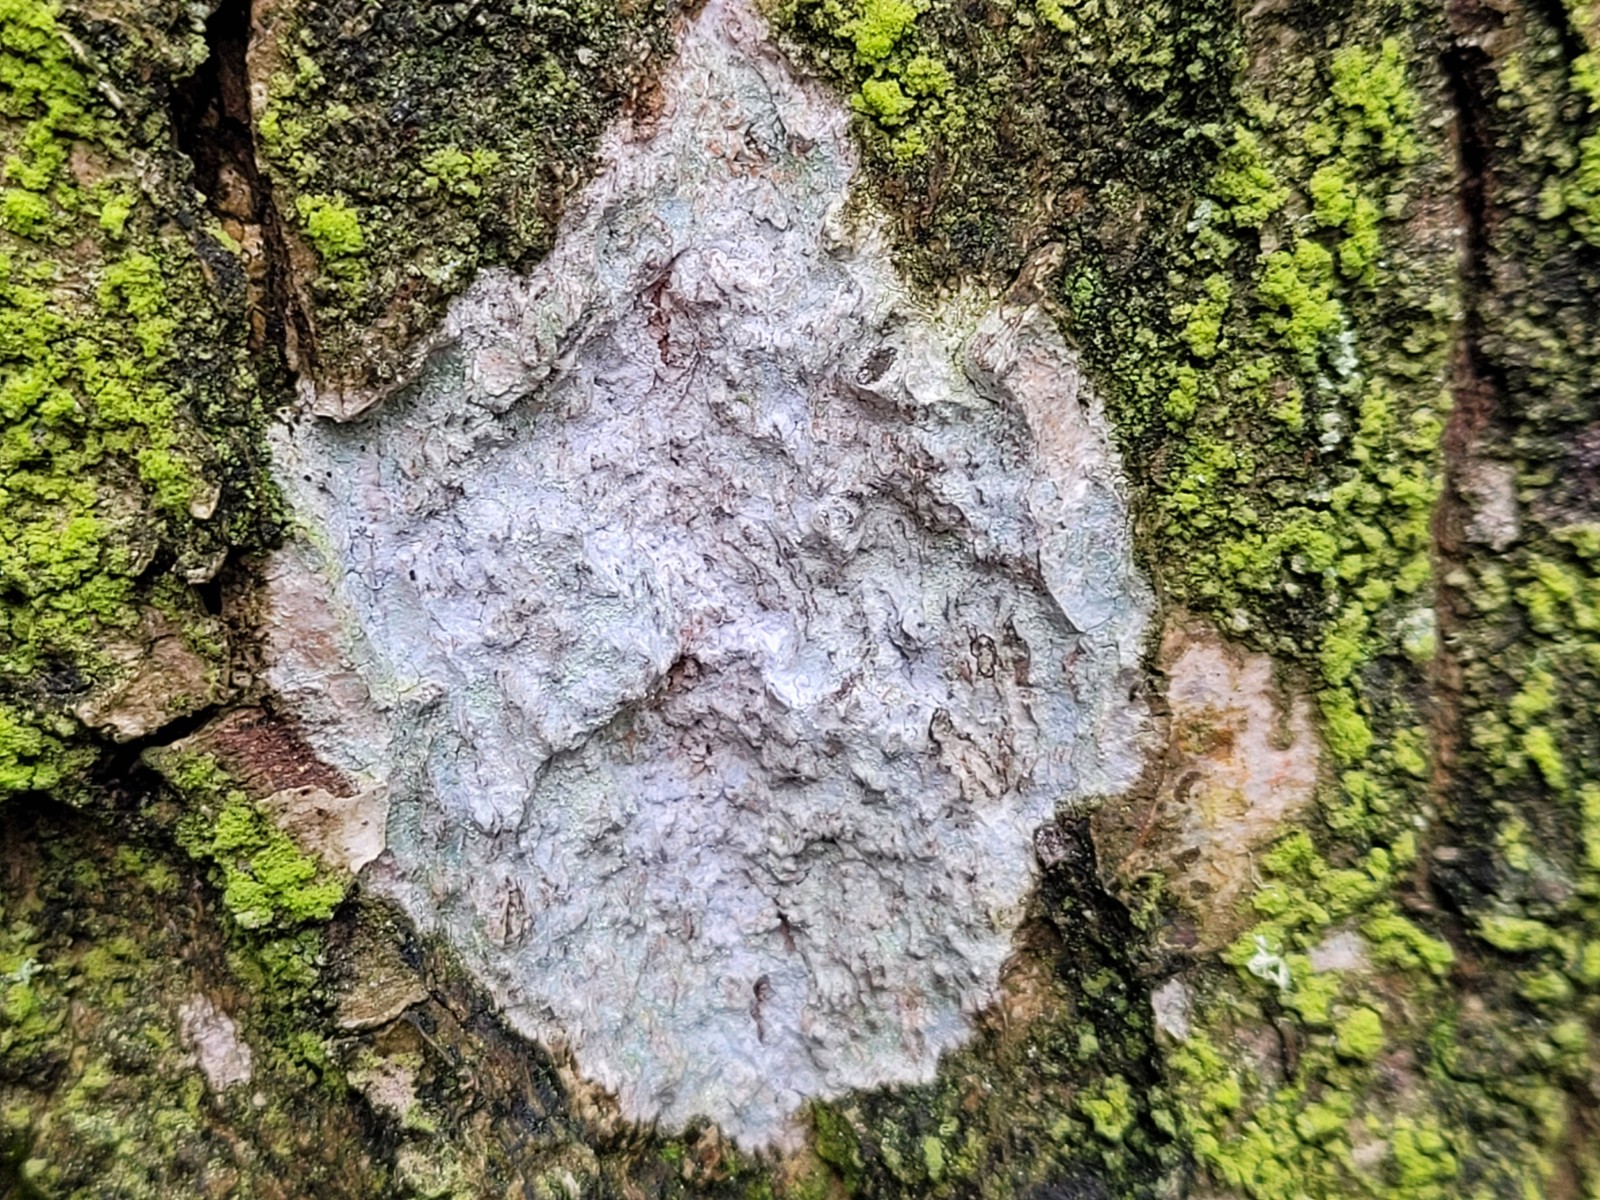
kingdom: Fungi
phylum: Ascomycota
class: Lecanoromycetes
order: Ostropales
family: Phlyctidaceae
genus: Phlyctis
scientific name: Phlyctis argena
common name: almindelig sølvlav
